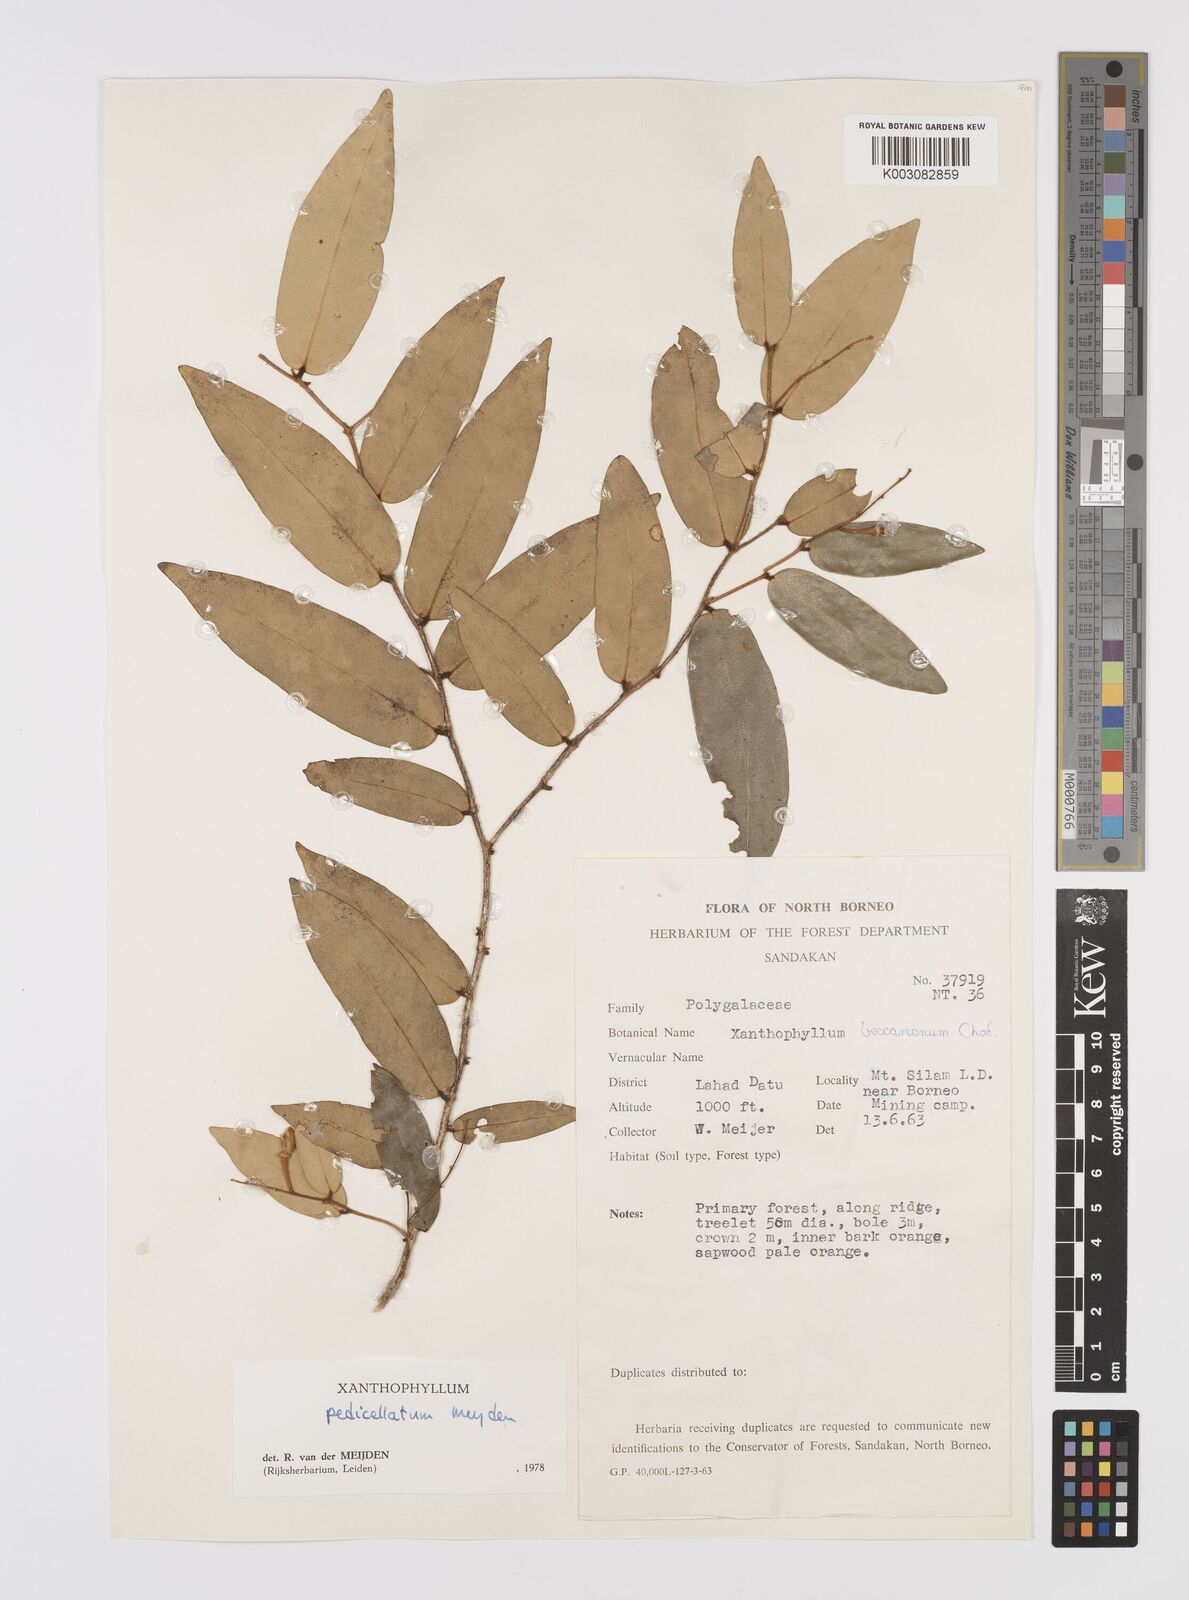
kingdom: Plantae
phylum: Tracheophyta
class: Magnoliopsida
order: Fabales
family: Polygalaceae
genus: Xanthophyllum
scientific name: Xanthophyllum pedicellatum
